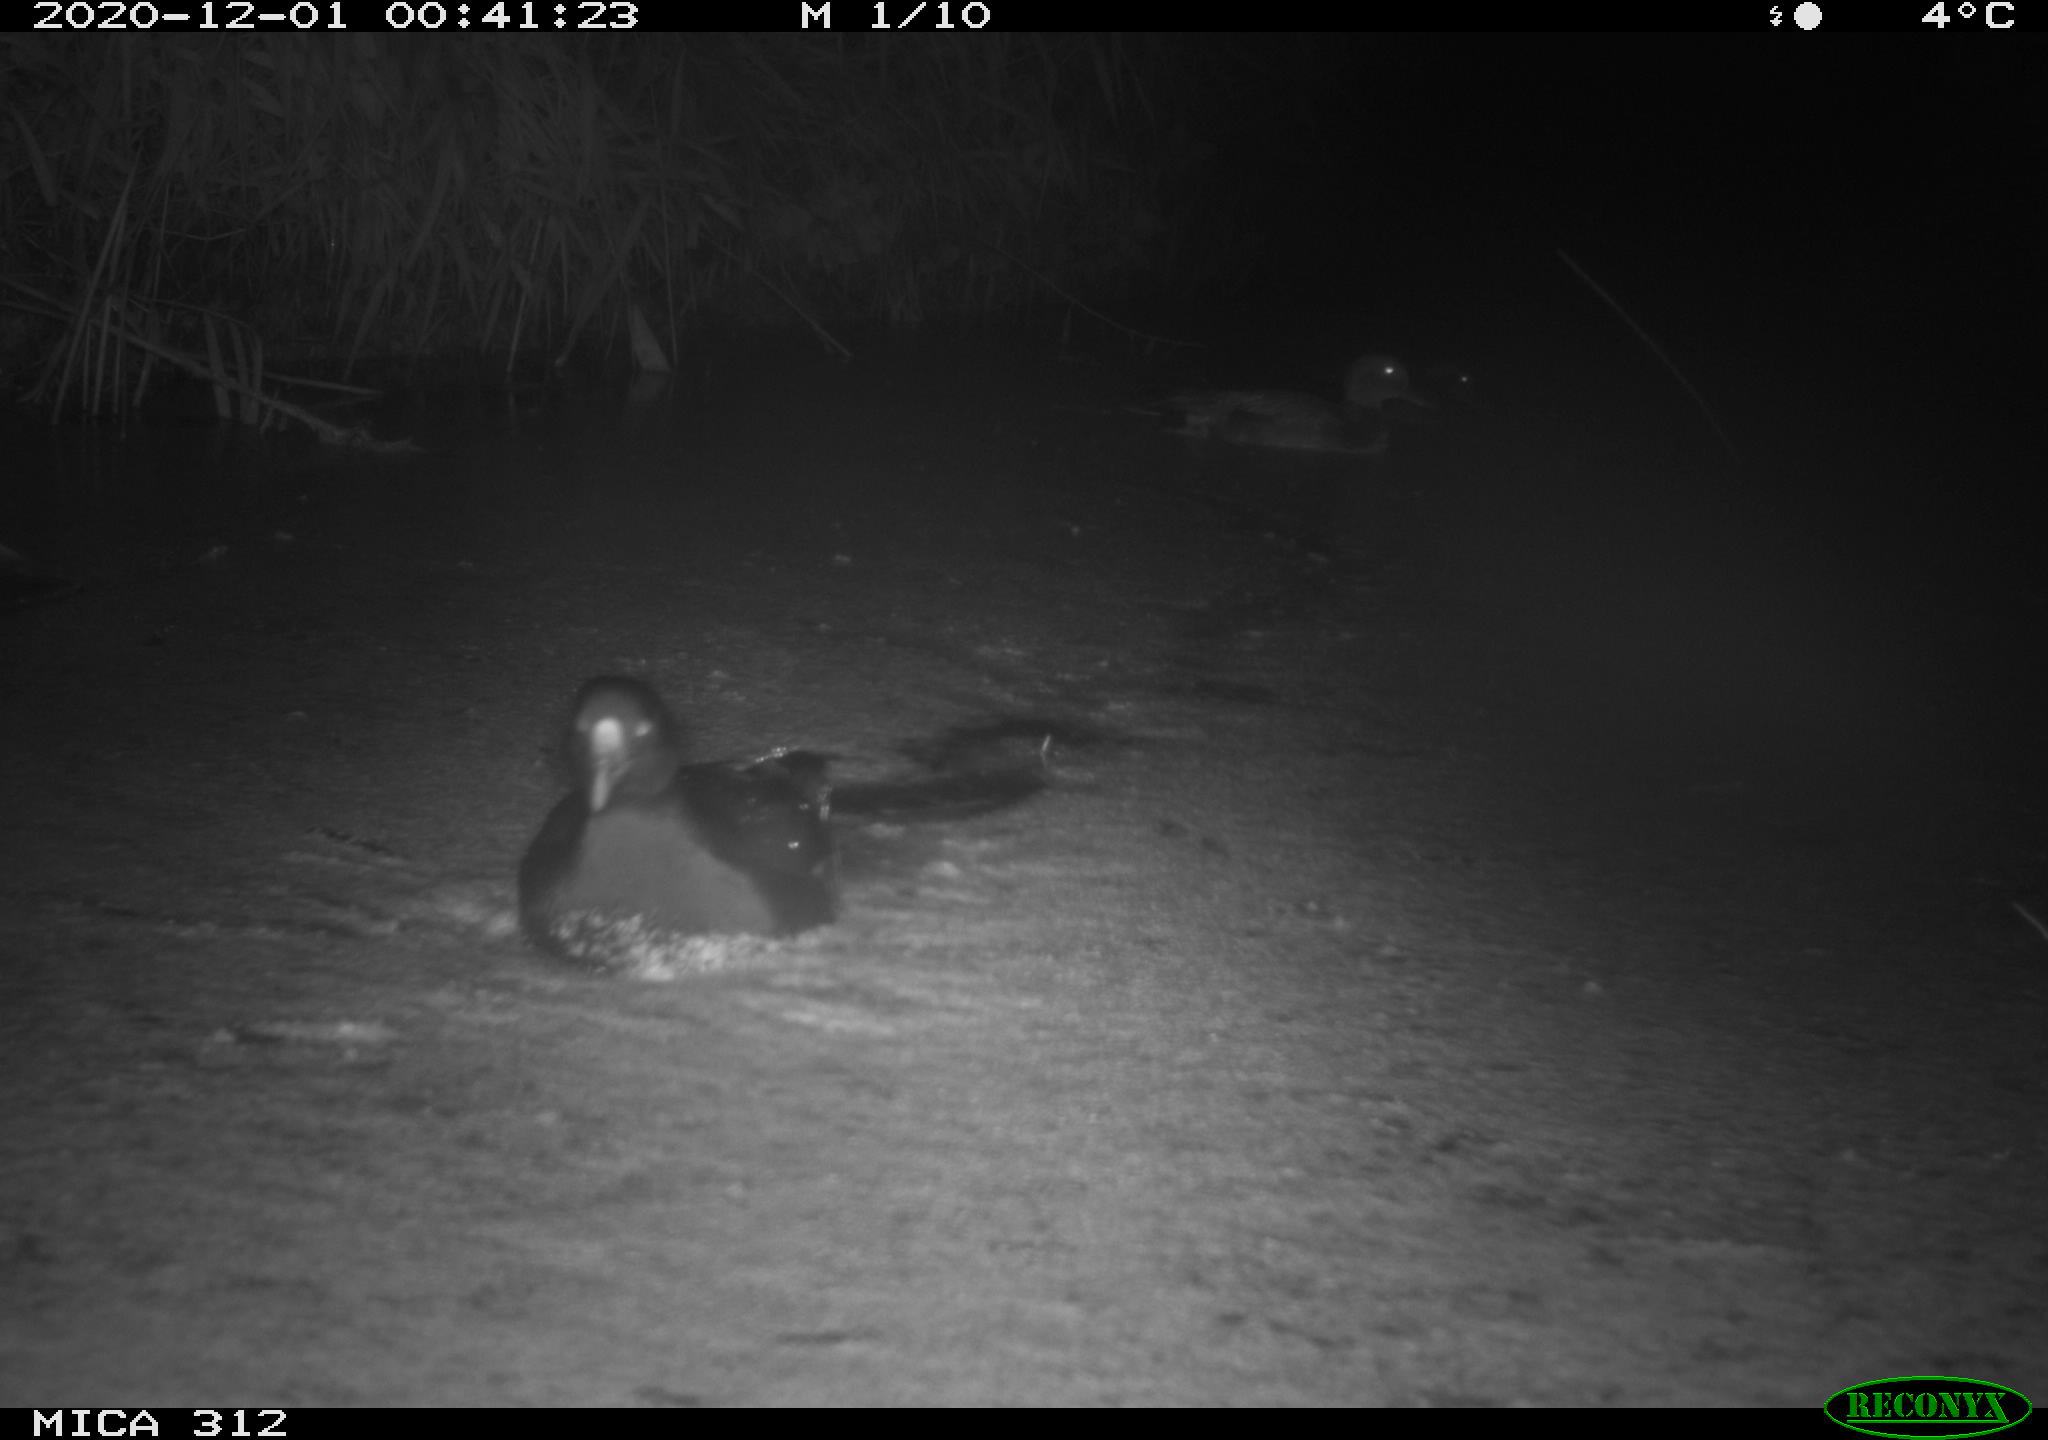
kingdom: Animalia
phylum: Chordata
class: Aves
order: Anseriformes
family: Anatidae
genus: Mareca
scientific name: Mareca strepera
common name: Gadwall
